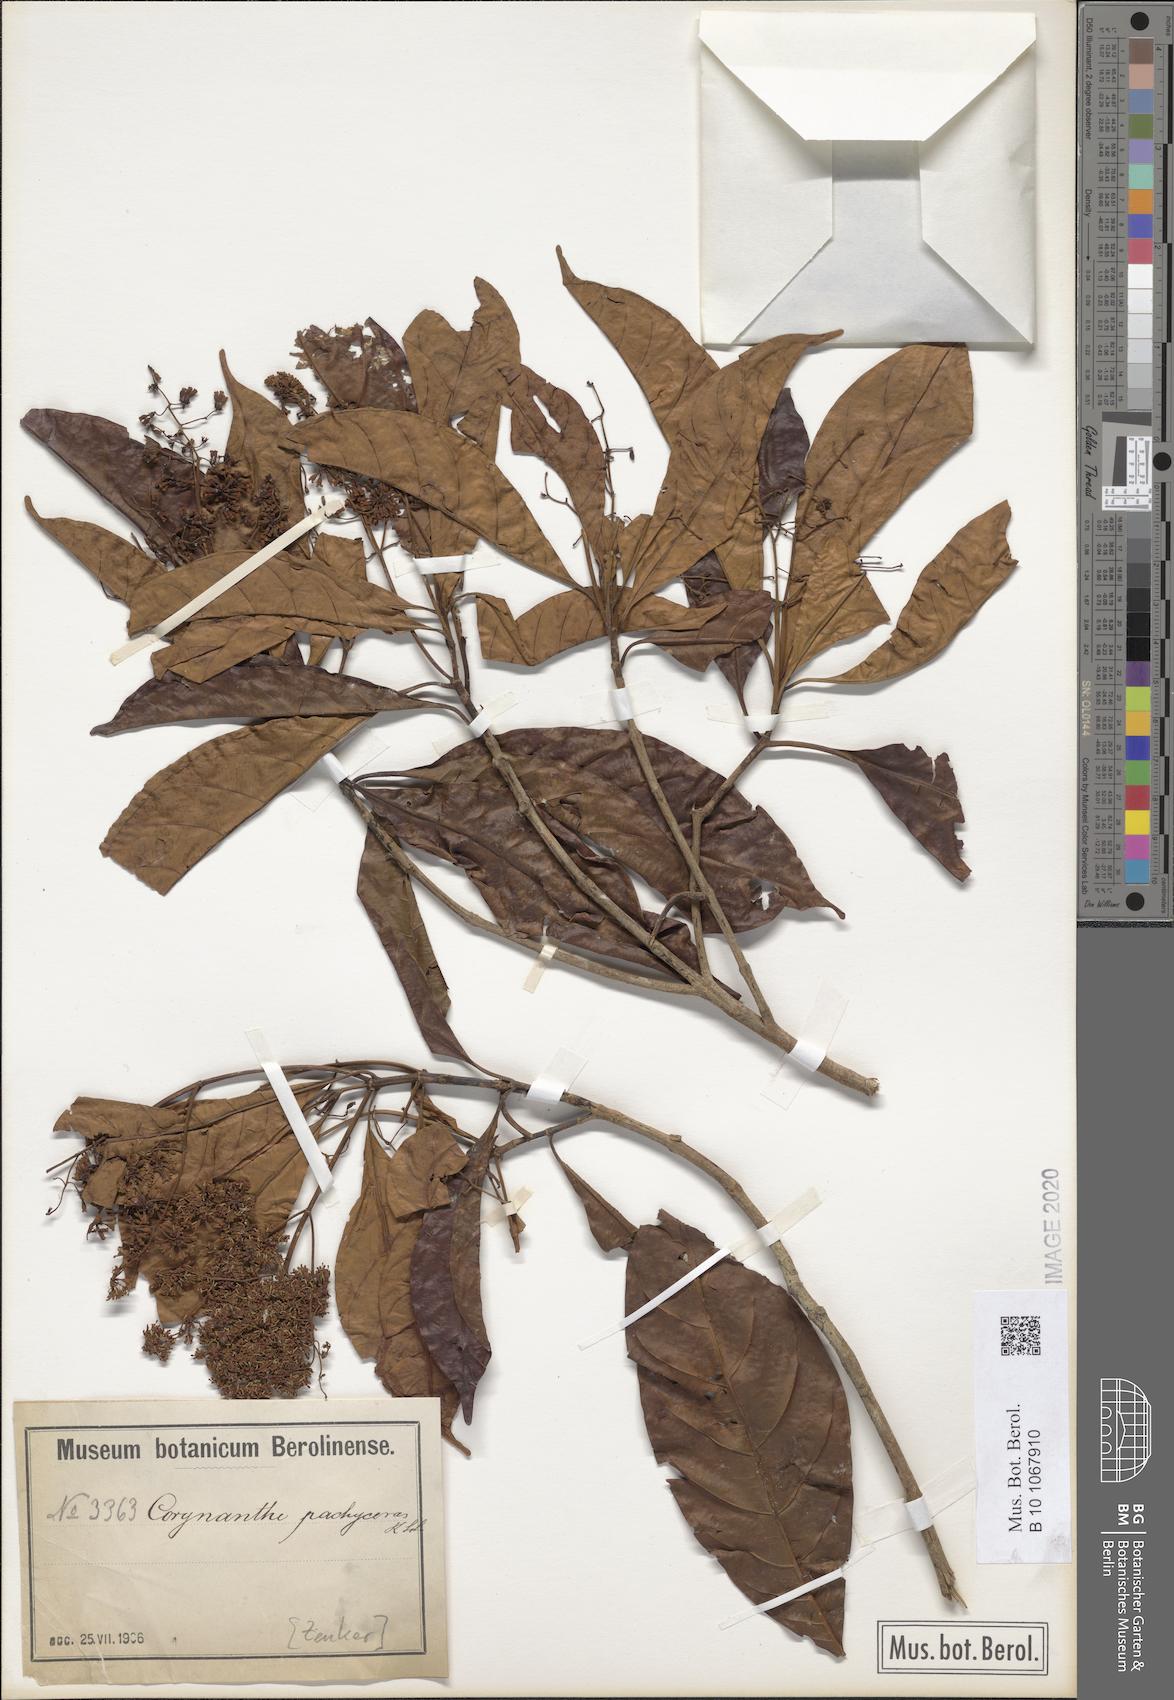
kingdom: Plantae
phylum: Tracheophyta
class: Magnoliopsida
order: Gentianales
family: Rubiaceae
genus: Corynanthe
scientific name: Corynanthe pachyceras
